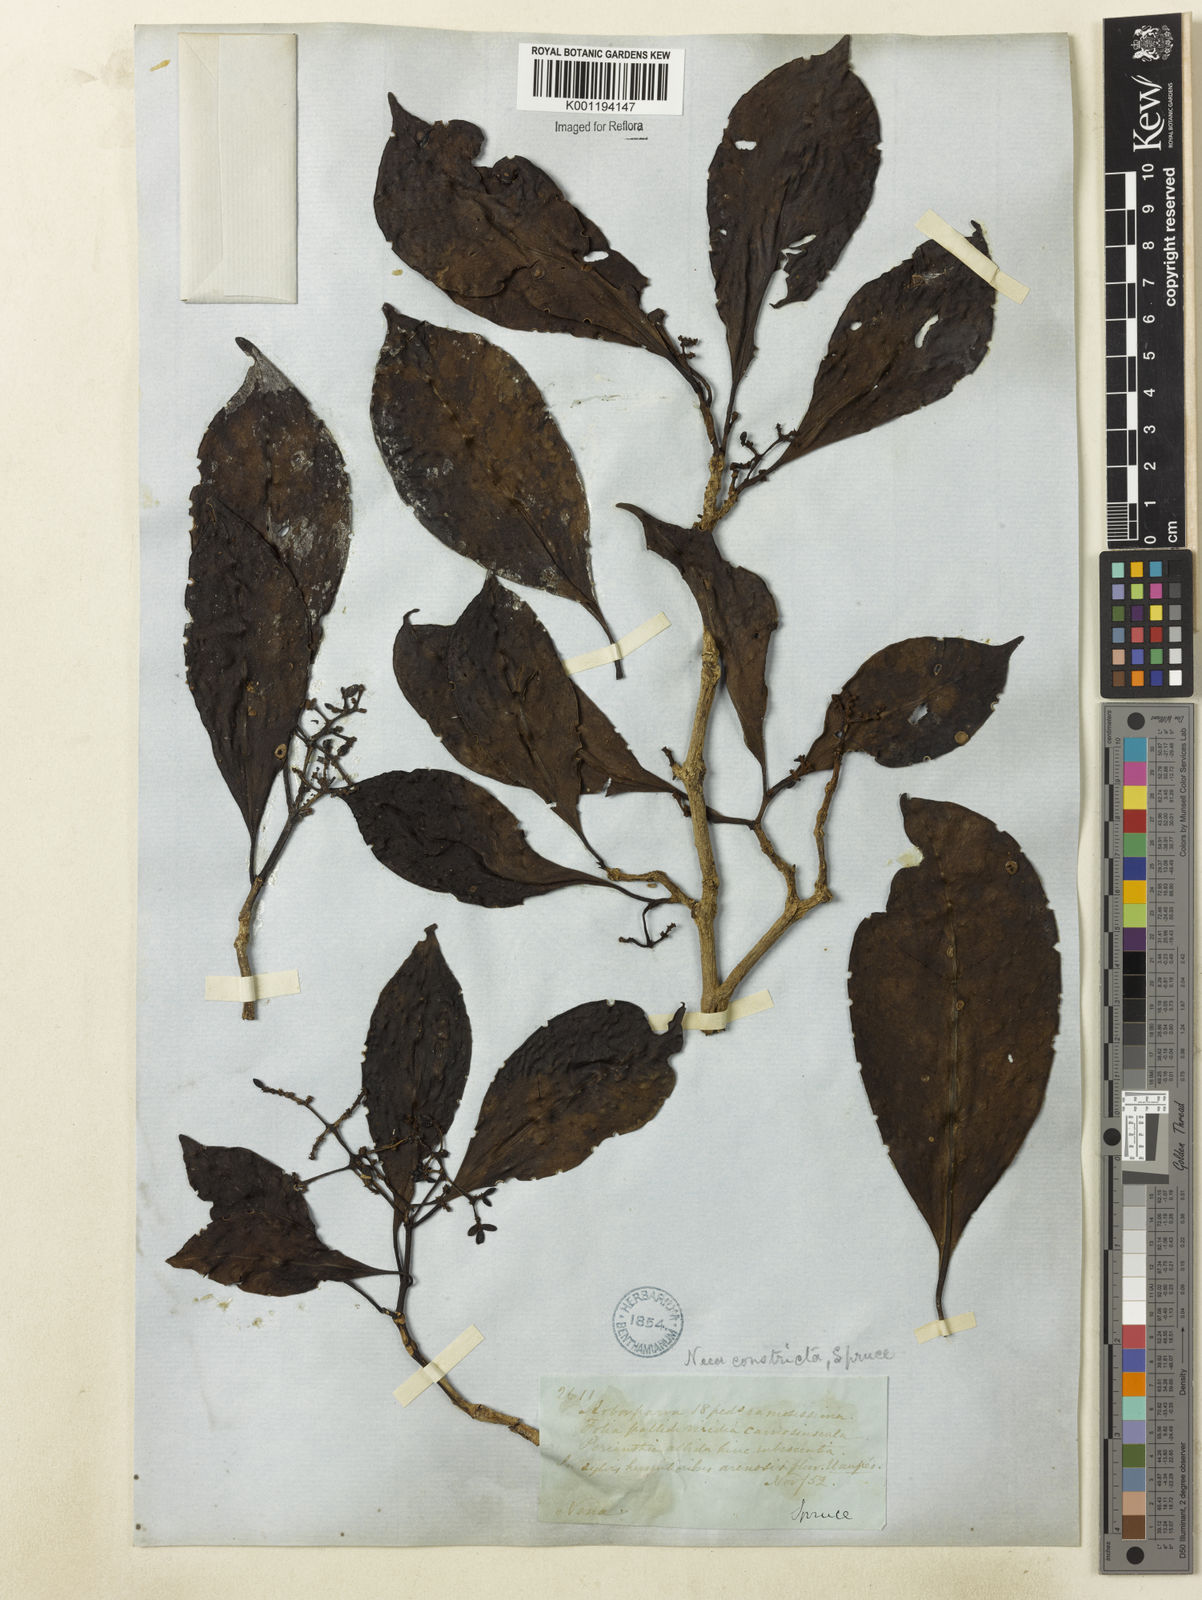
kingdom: Plantae
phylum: Tracheophyta
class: Magnoliopsida
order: Caryophyllales
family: Nyctaginaceae
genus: Neea
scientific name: Neea constricta
